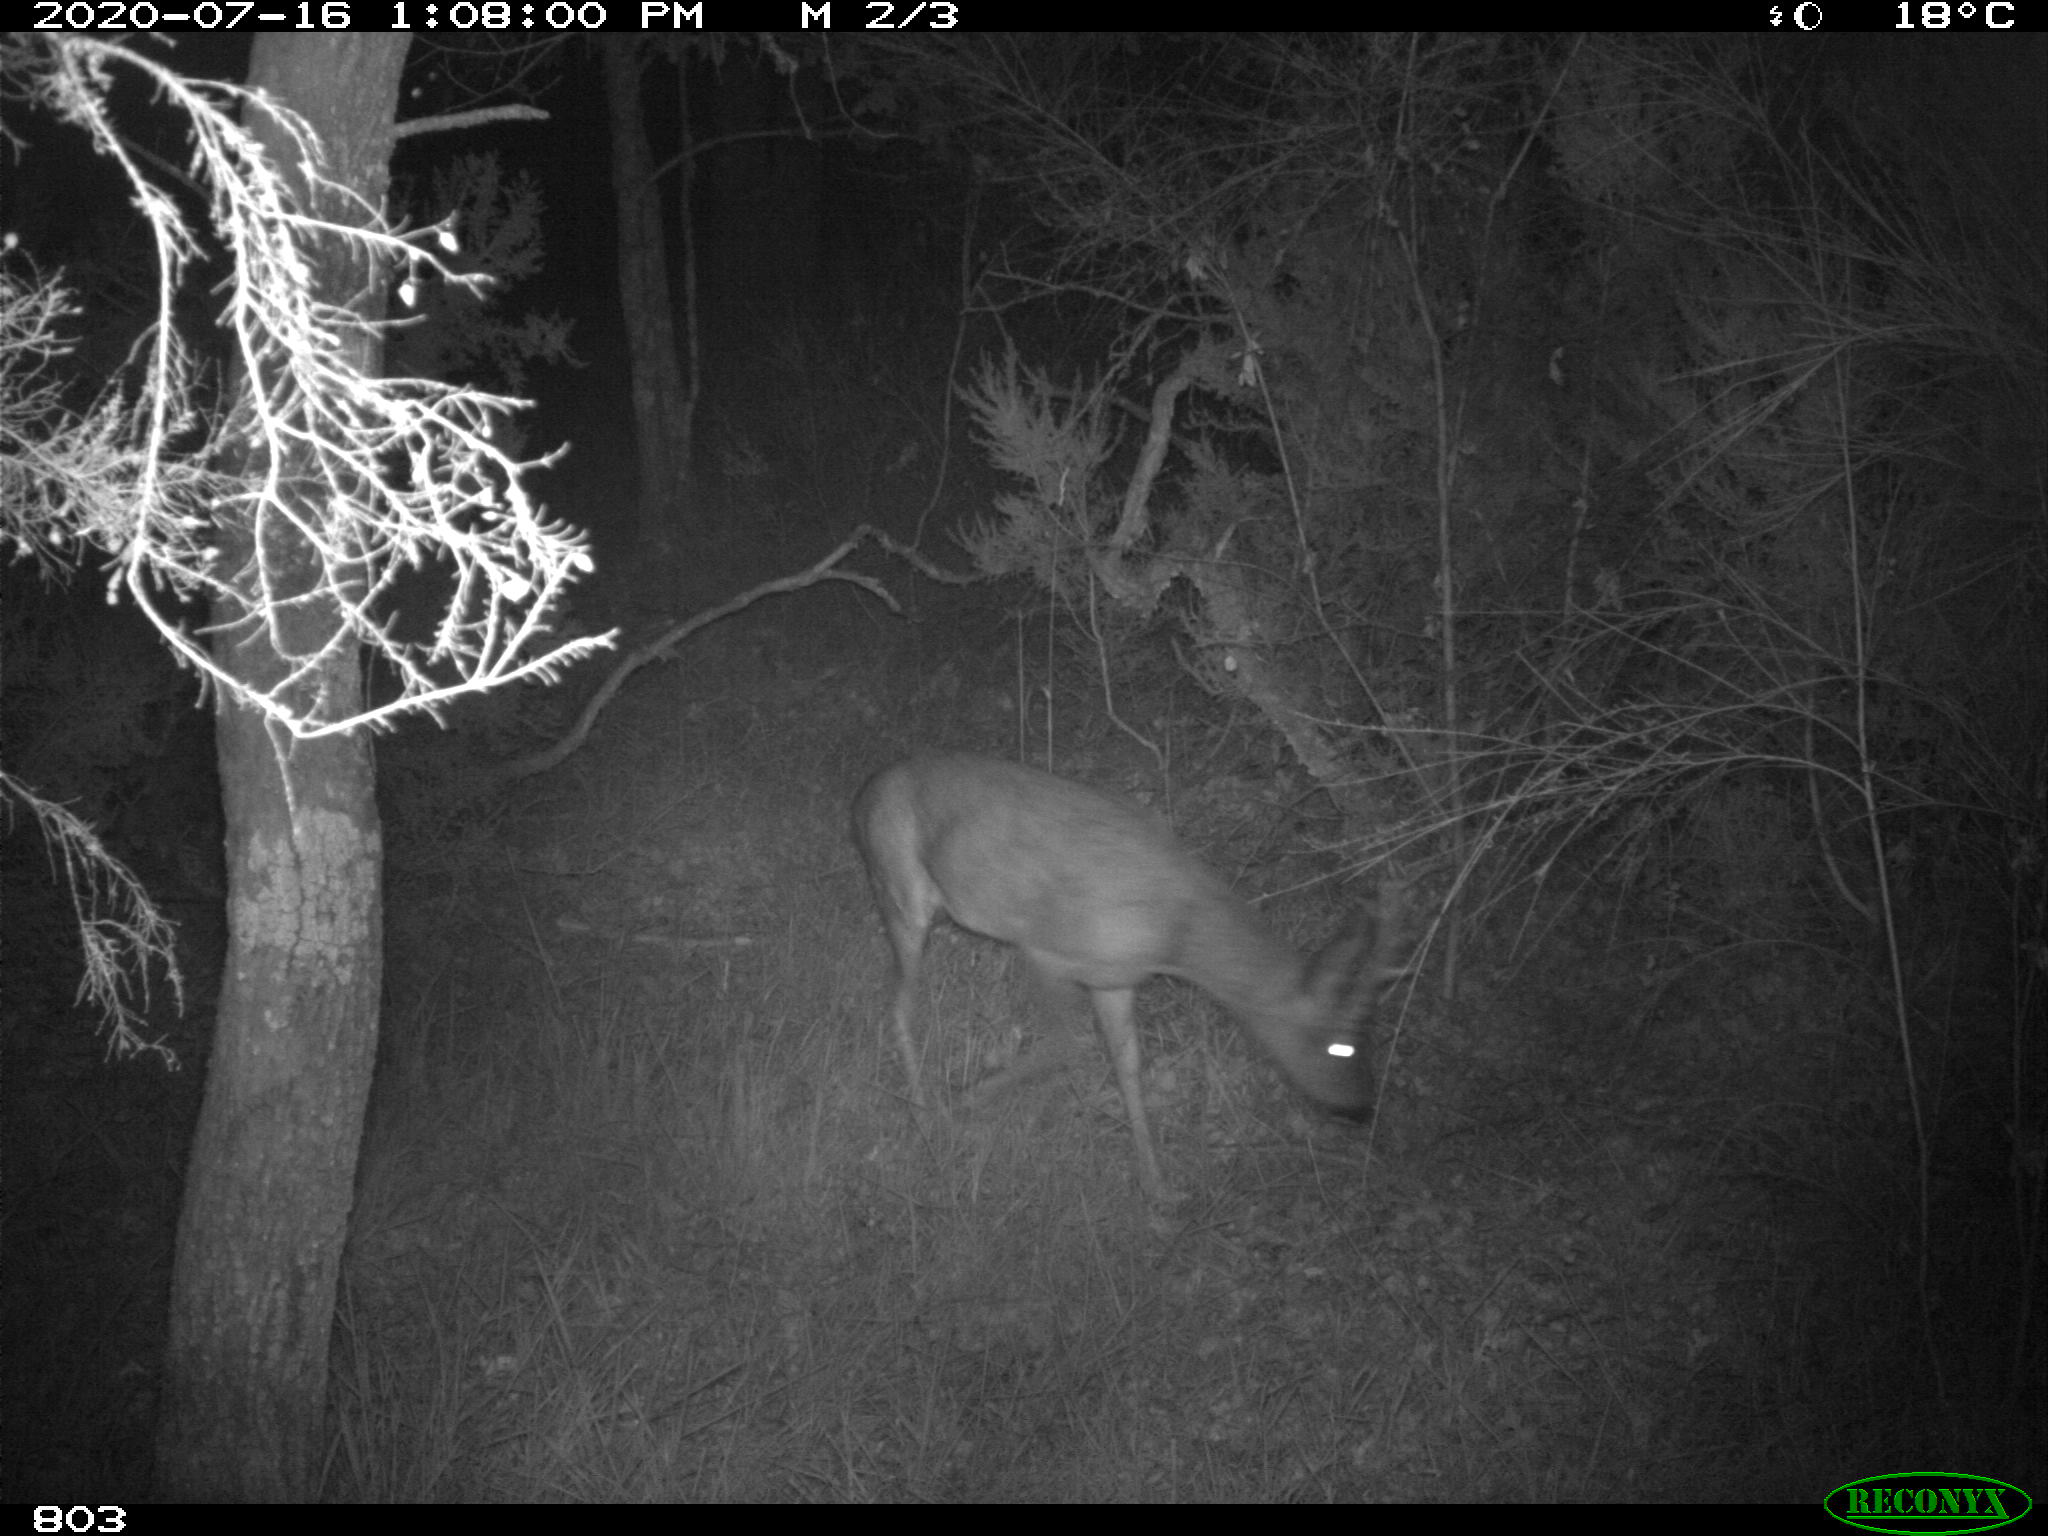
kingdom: Animalia
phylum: Chordata
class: Mammalia
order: Artiodactyla
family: Cervidae
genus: Capreolus
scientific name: Capreolus capreolus
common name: Western roe deer
